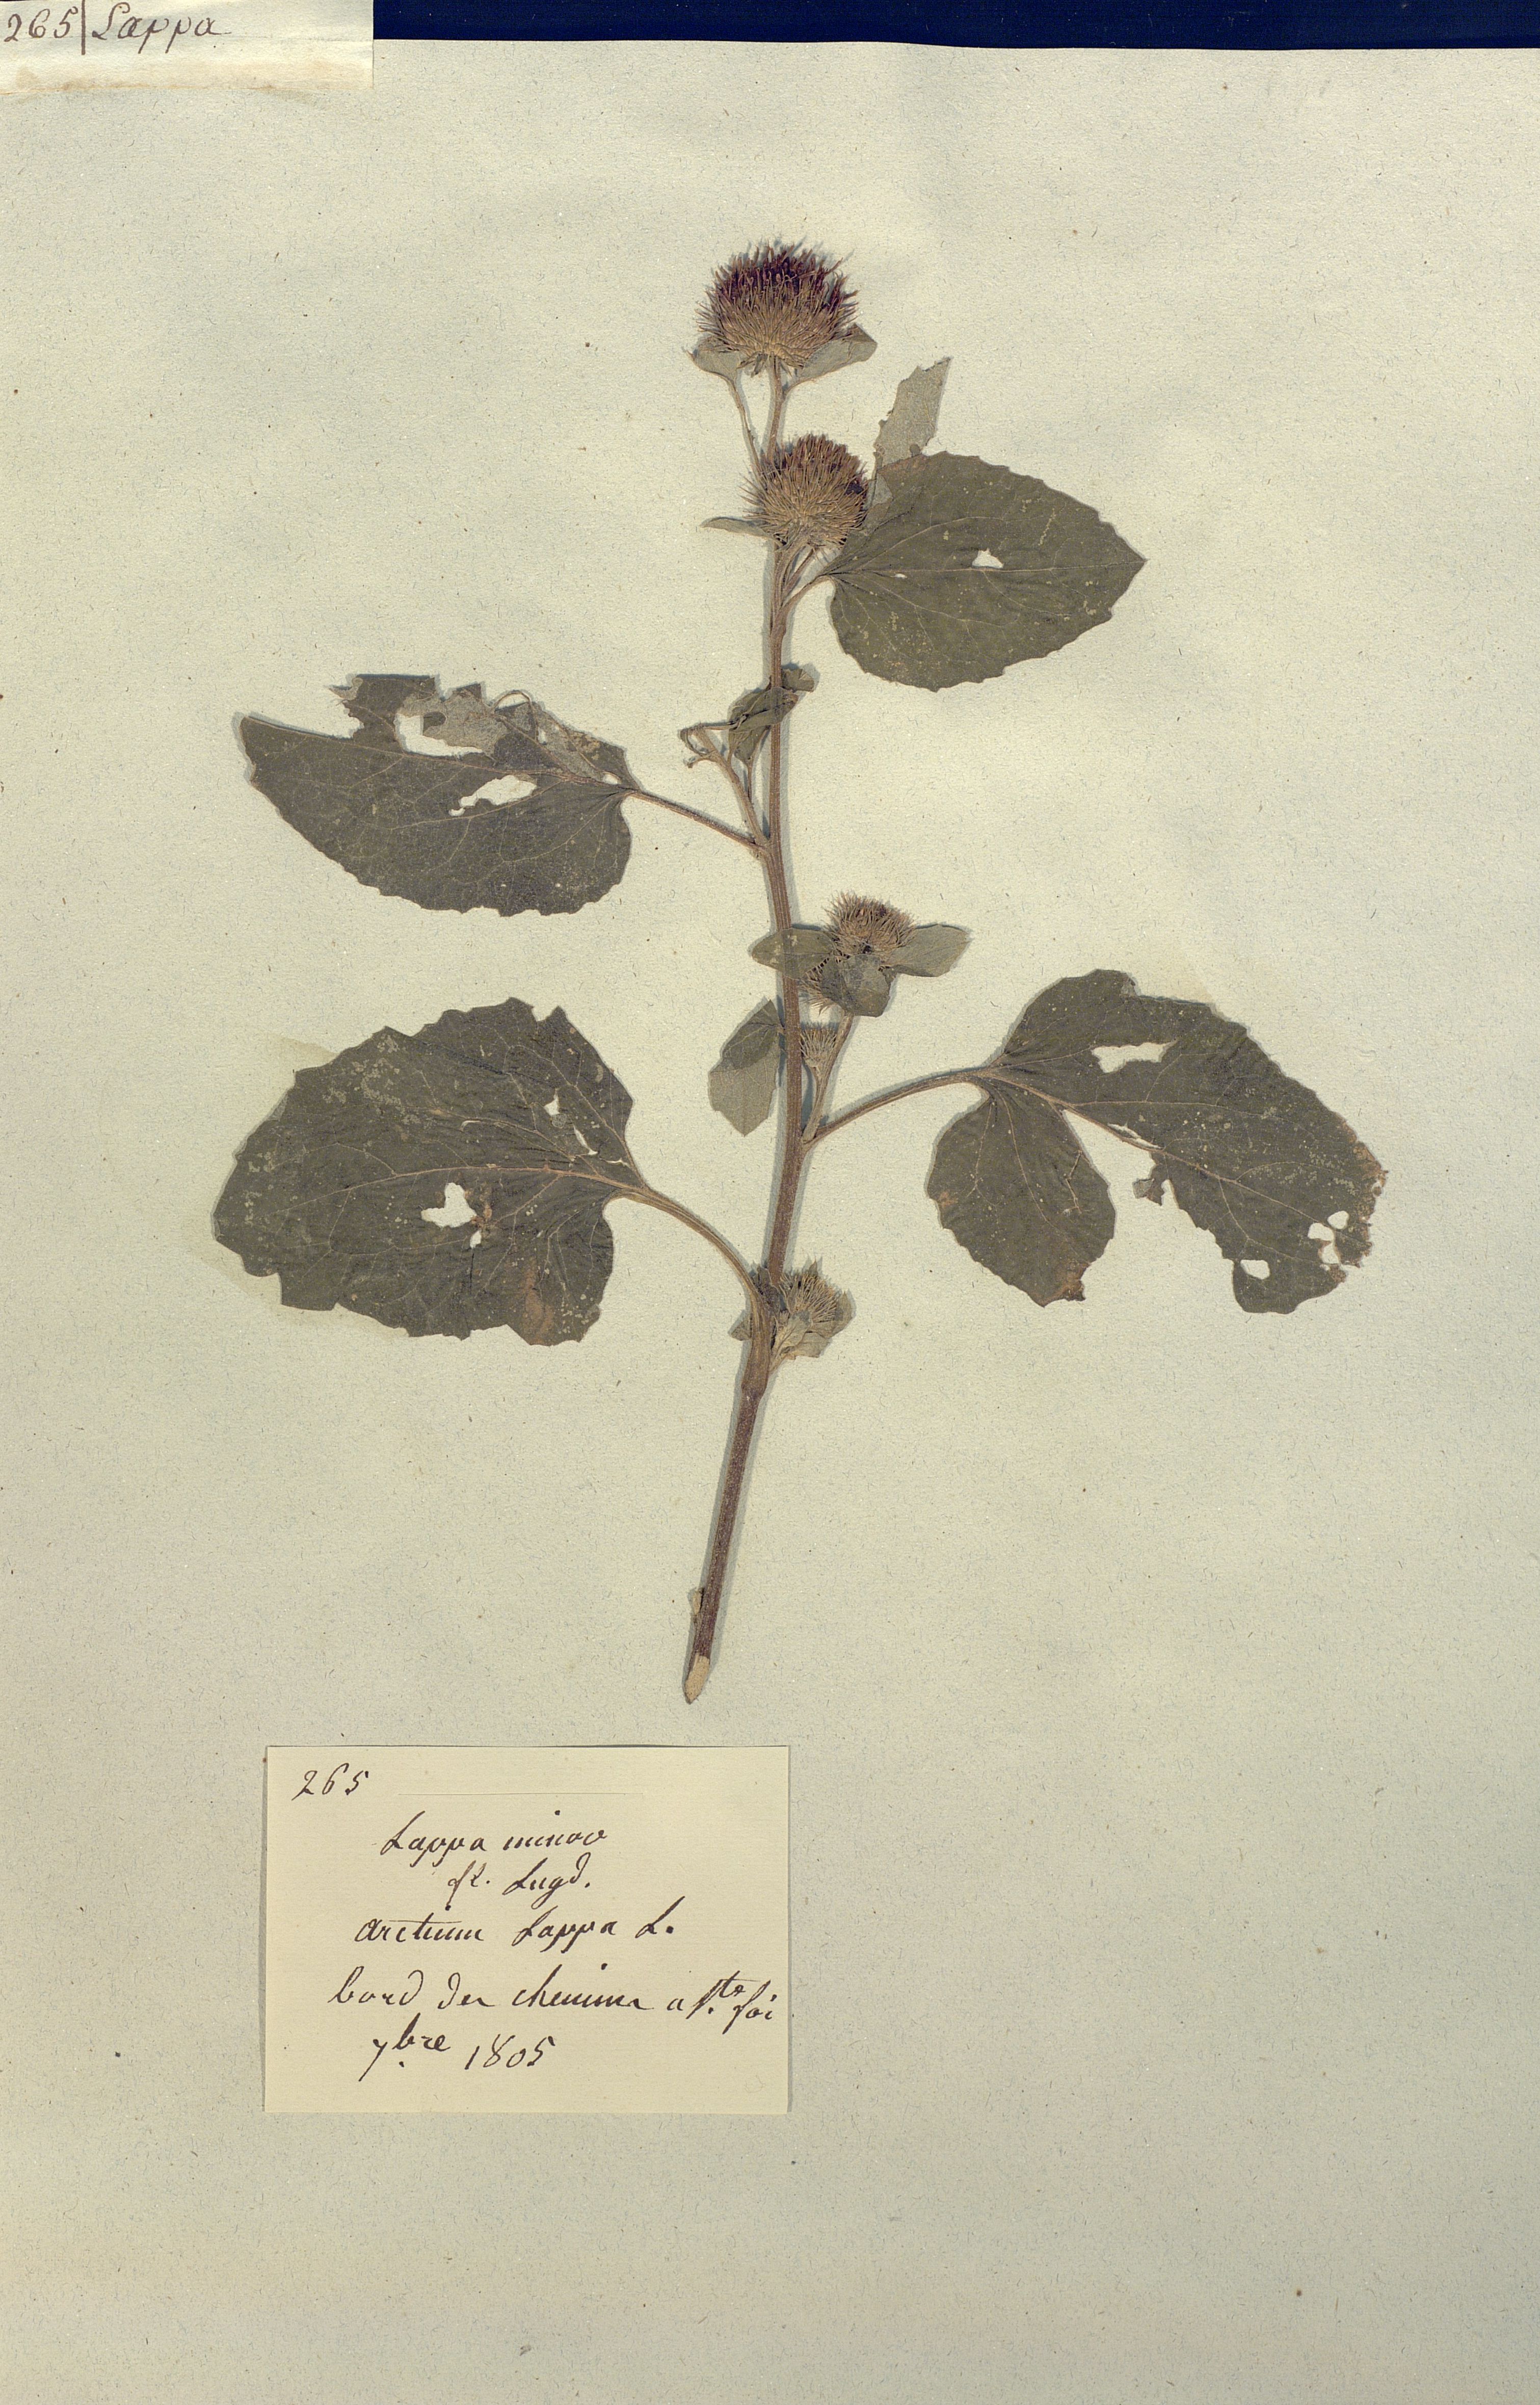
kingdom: Plantae
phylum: Tracheophyta
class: Magnoliopsida
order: Asterales
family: Asteraceae
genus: Arctium
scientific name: Arctium minus
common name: Lesser burdock
